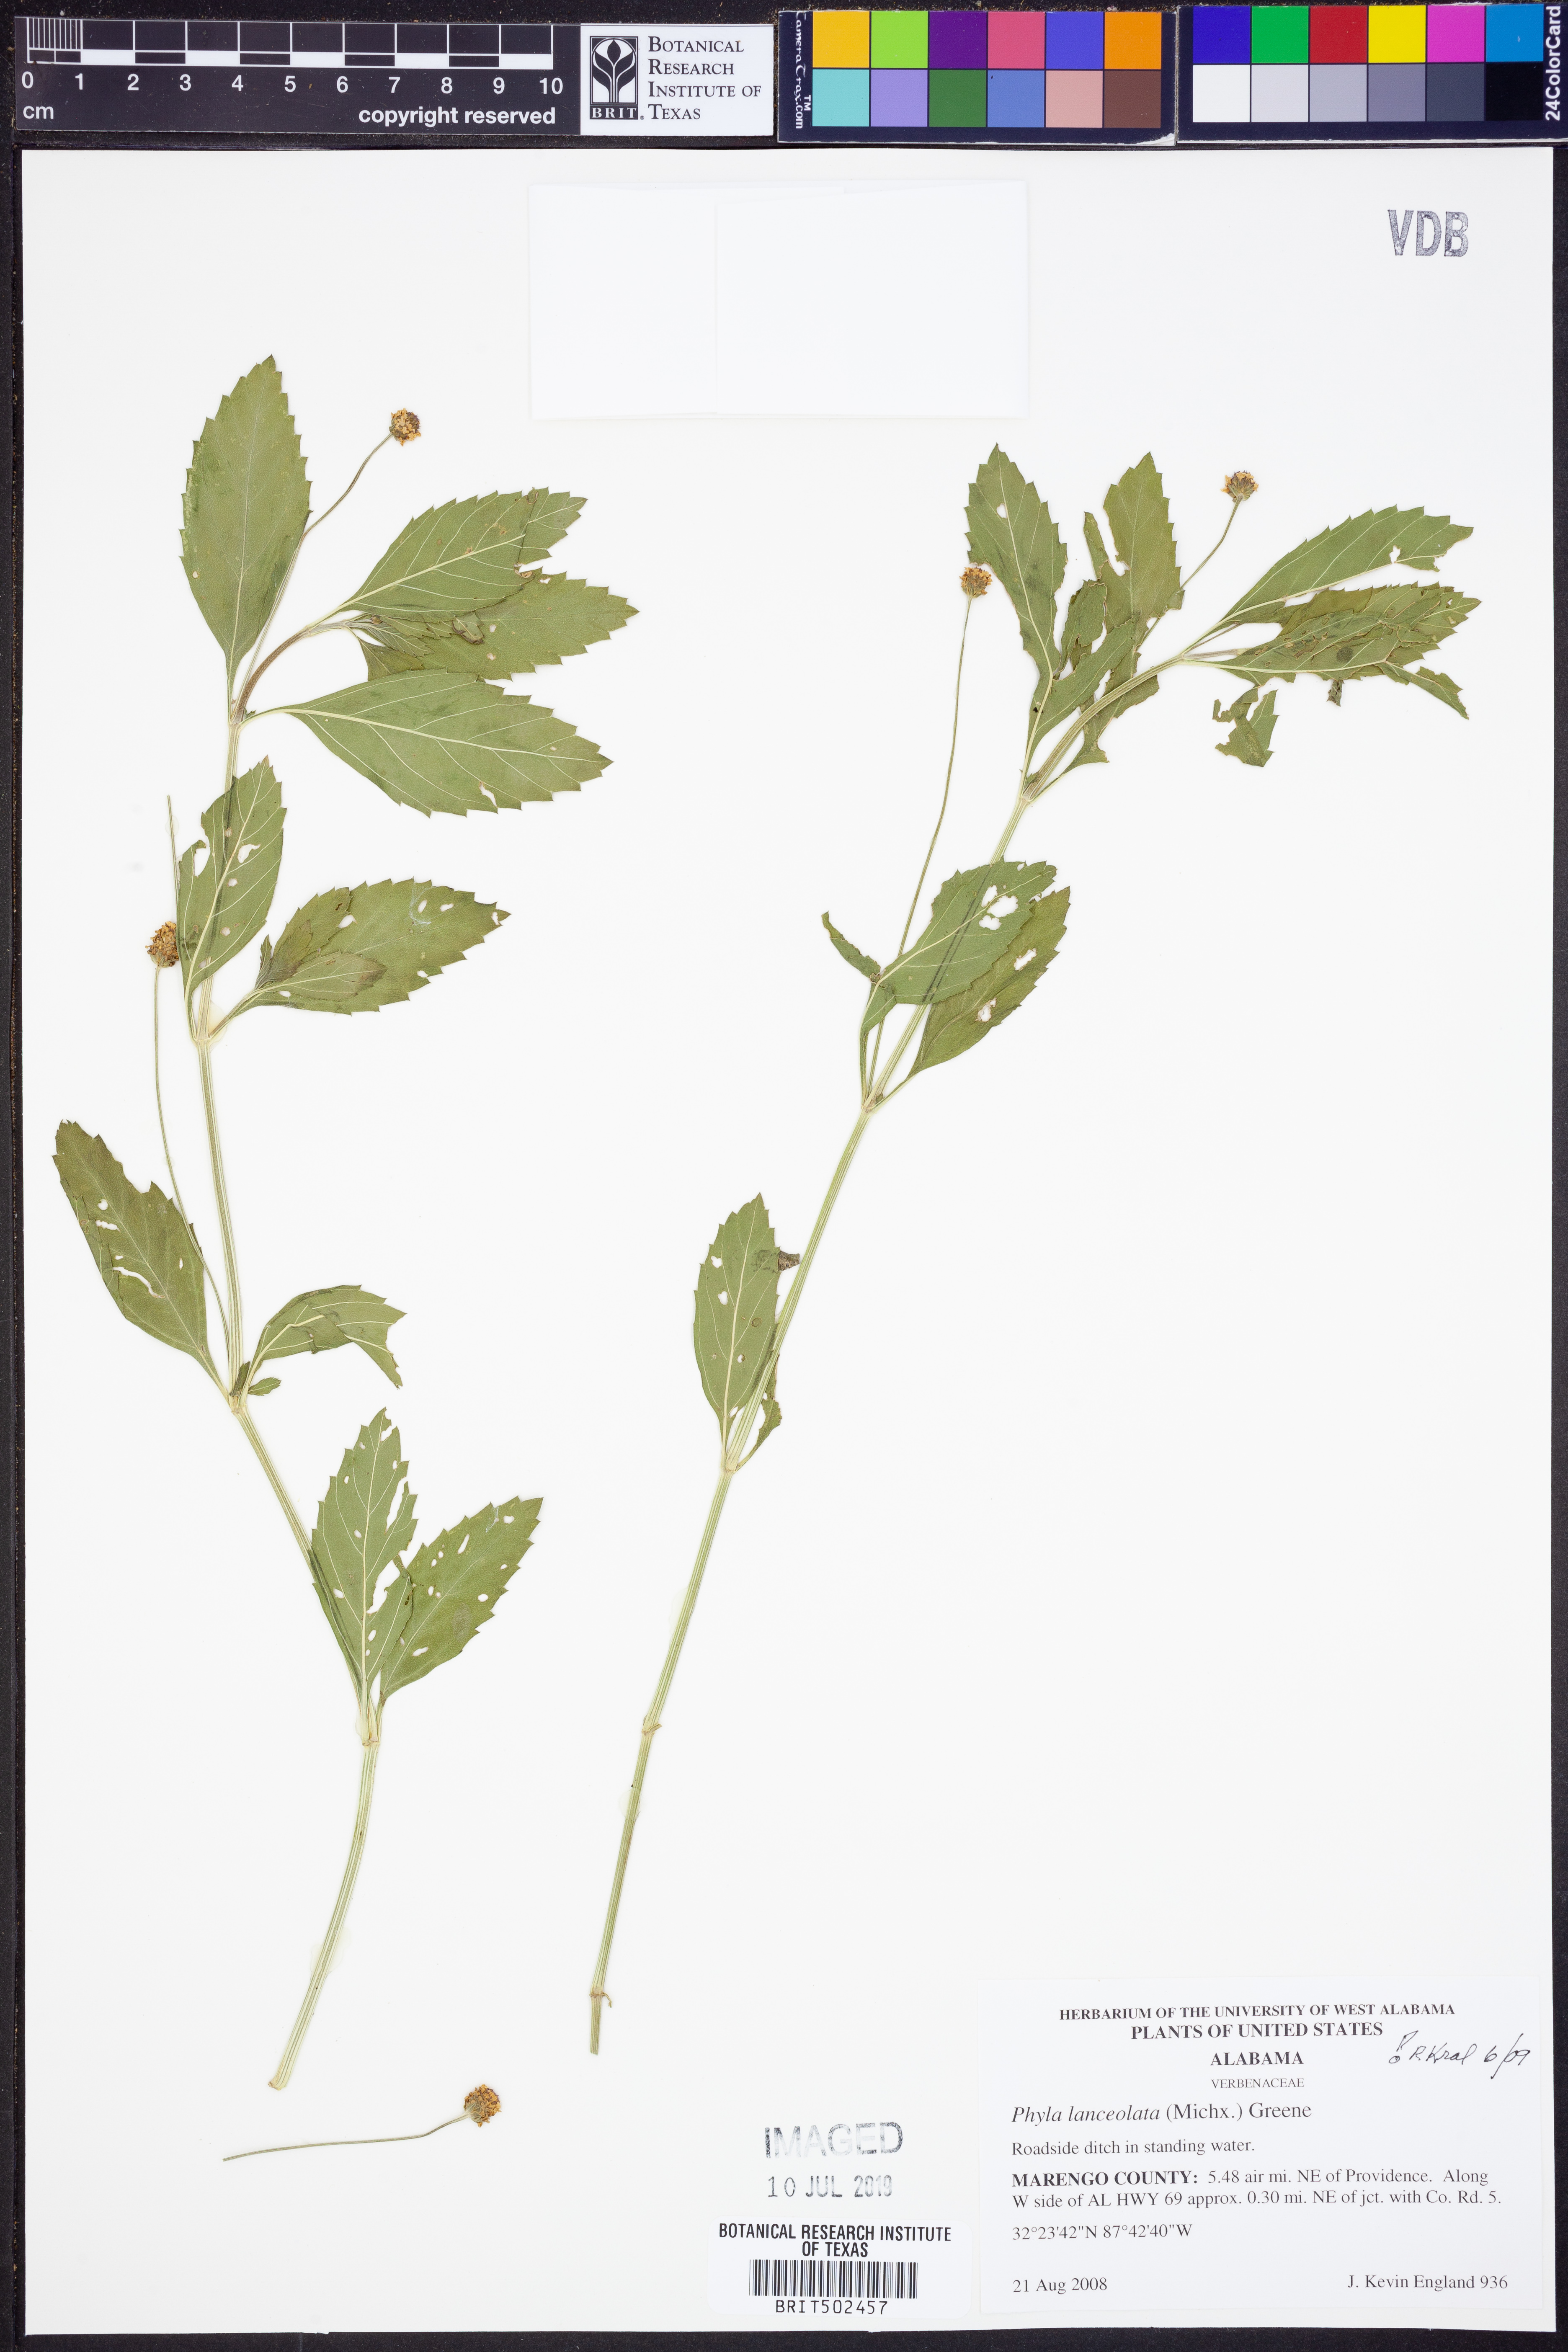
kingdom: Plantae
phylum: Tracheophyta
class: Magnoliopsida
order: Lamiales
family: Verbenaceae
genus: Phyla
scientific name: Phyla lanceolata
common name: Northern fogfruit
